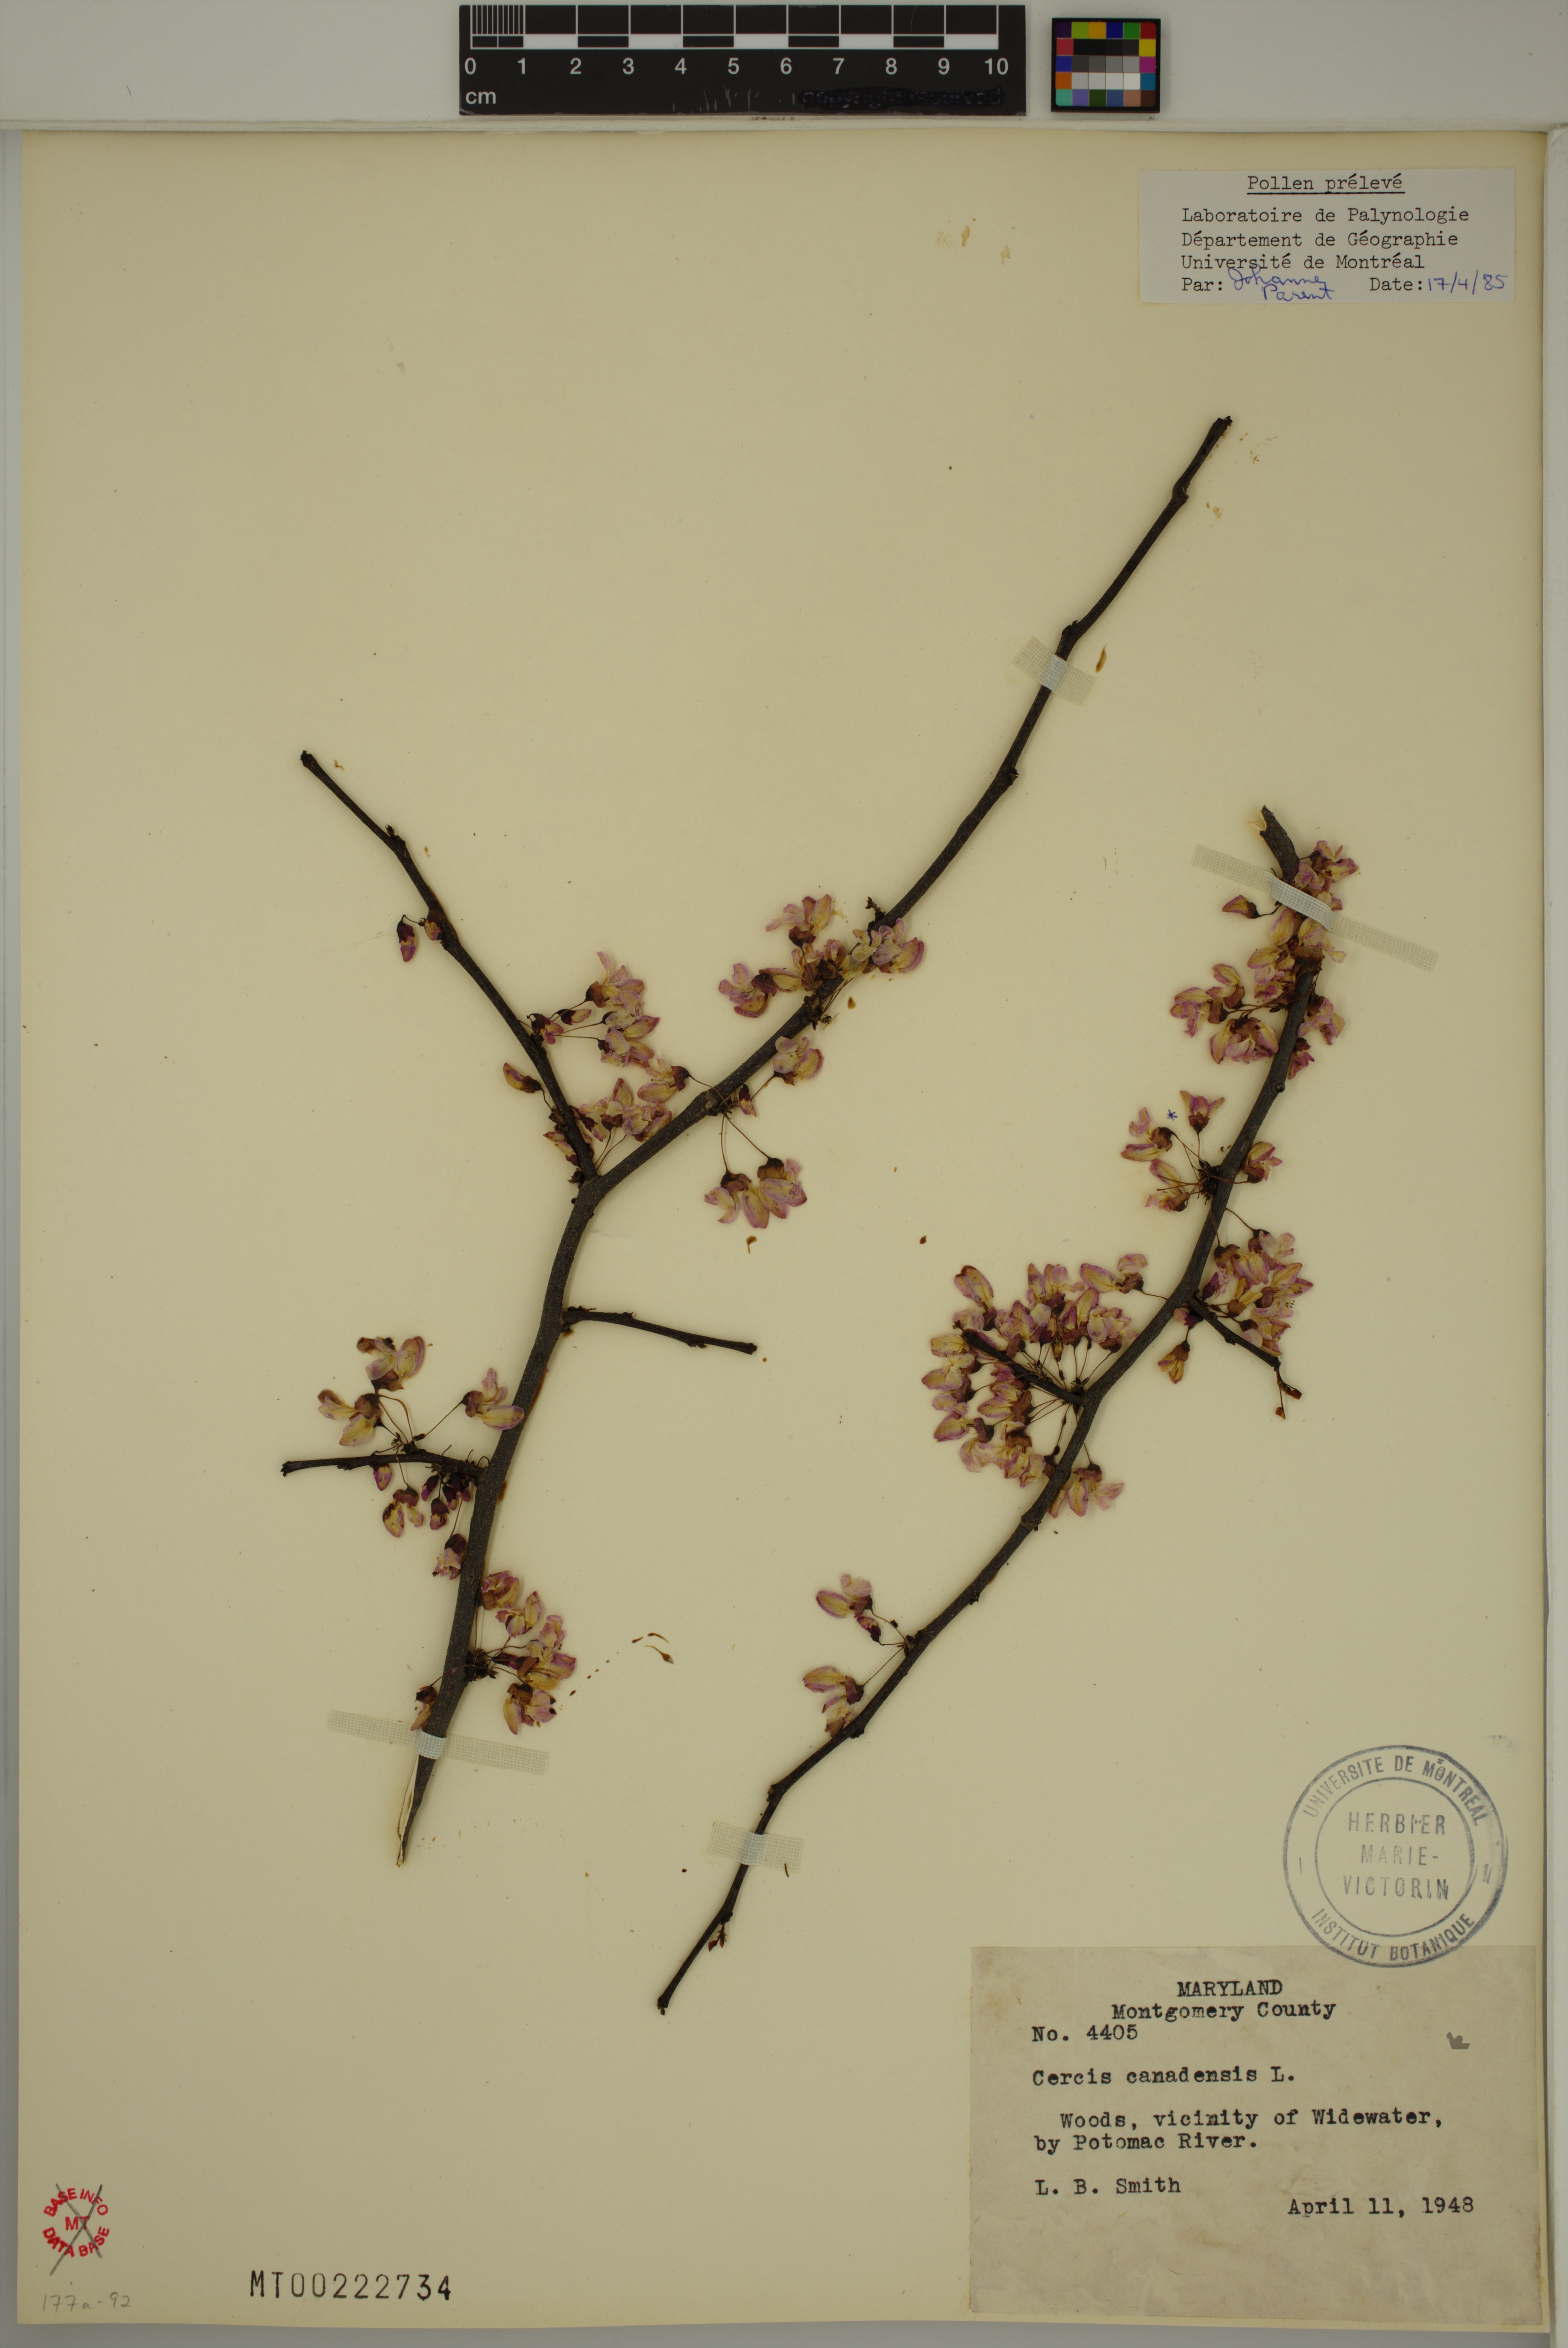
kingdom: Plantae
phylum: Tracheophyta
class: Magnoliopsida
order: Fabales
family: Fabaceae
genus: Cercis
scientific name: Cercis canadensis
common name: Eastern redbud
